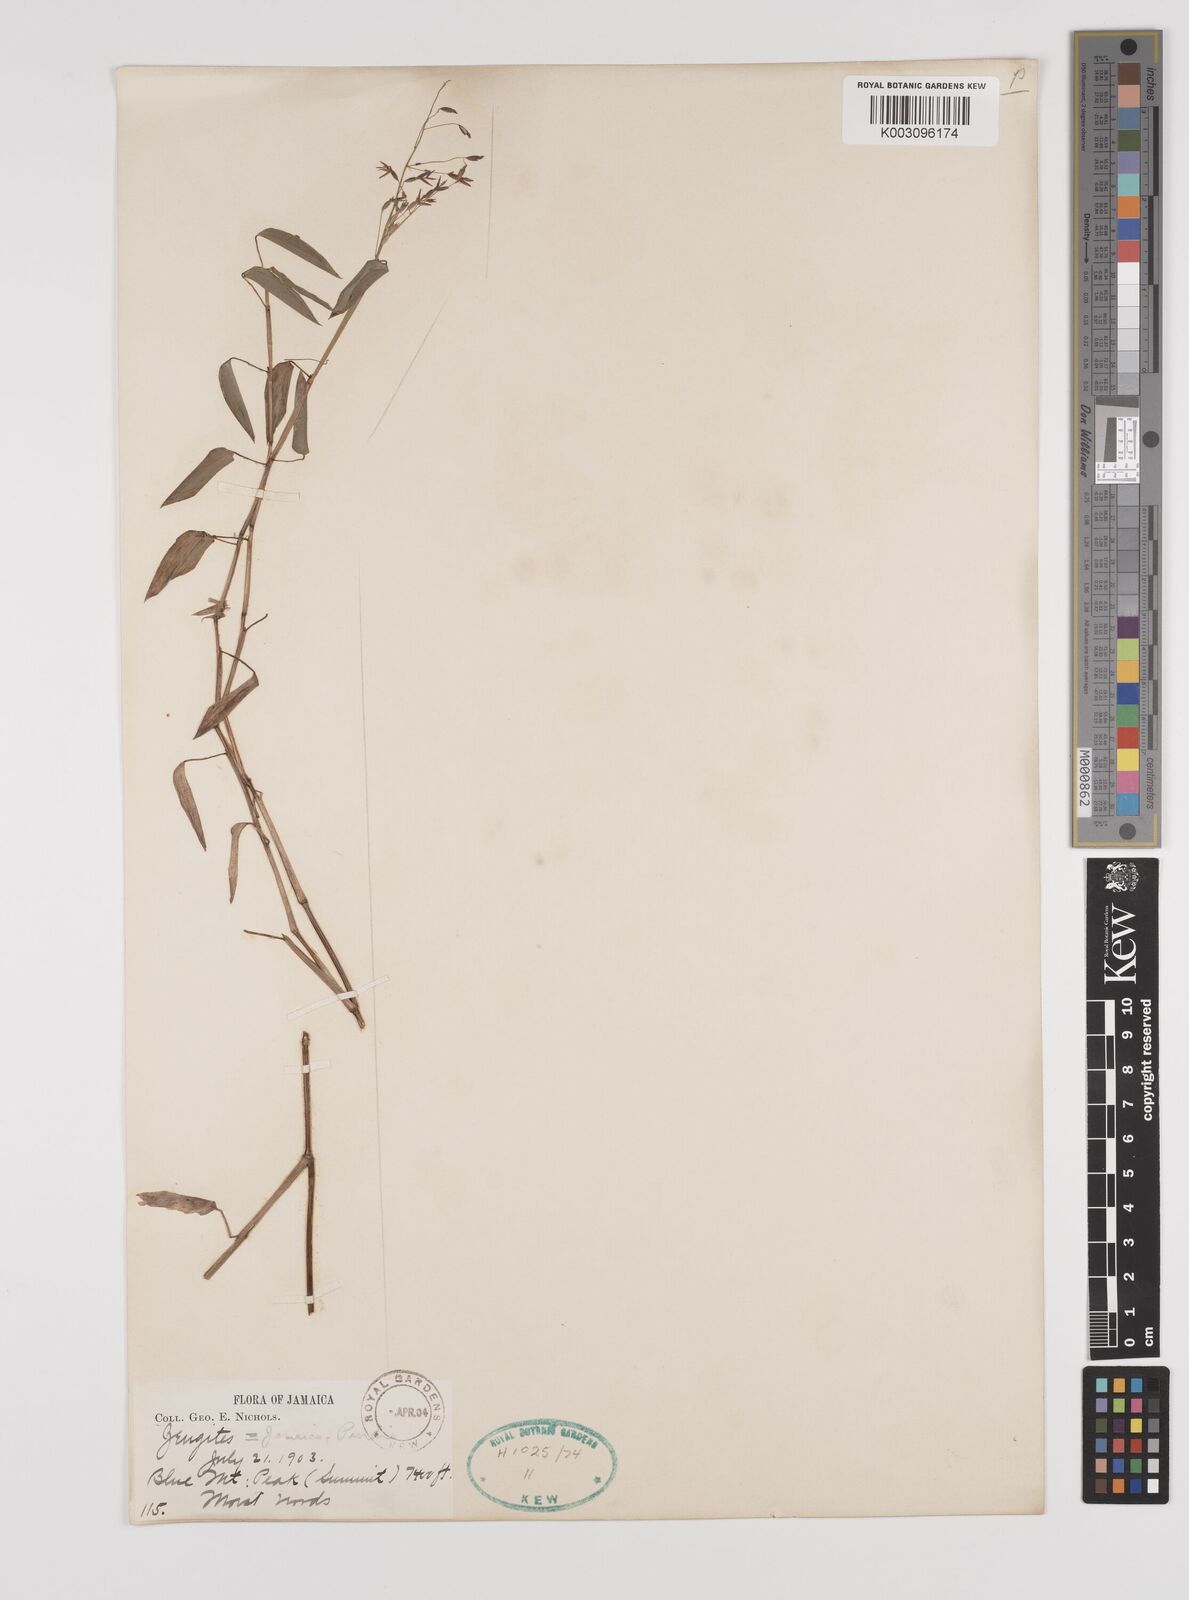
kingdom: Plantae
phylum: Tracheophyta
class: Liliopsida
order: Poales
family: Poaceae
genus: Zeugites
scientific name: Zeugites americanus
